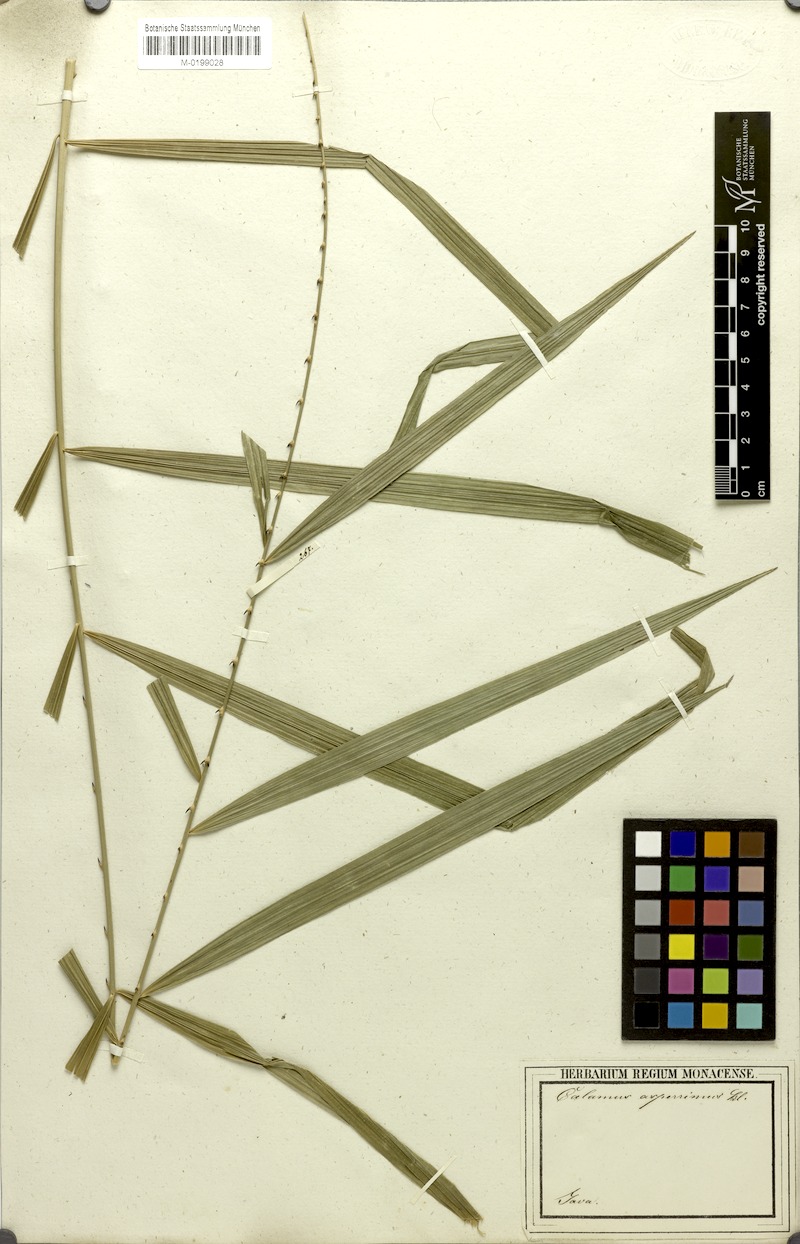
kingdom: Plantae
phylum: Tracheophyta
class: Liliopsida
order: Arecales
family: Arecaceae
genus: Calamus
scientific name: Calamus asperrimus
